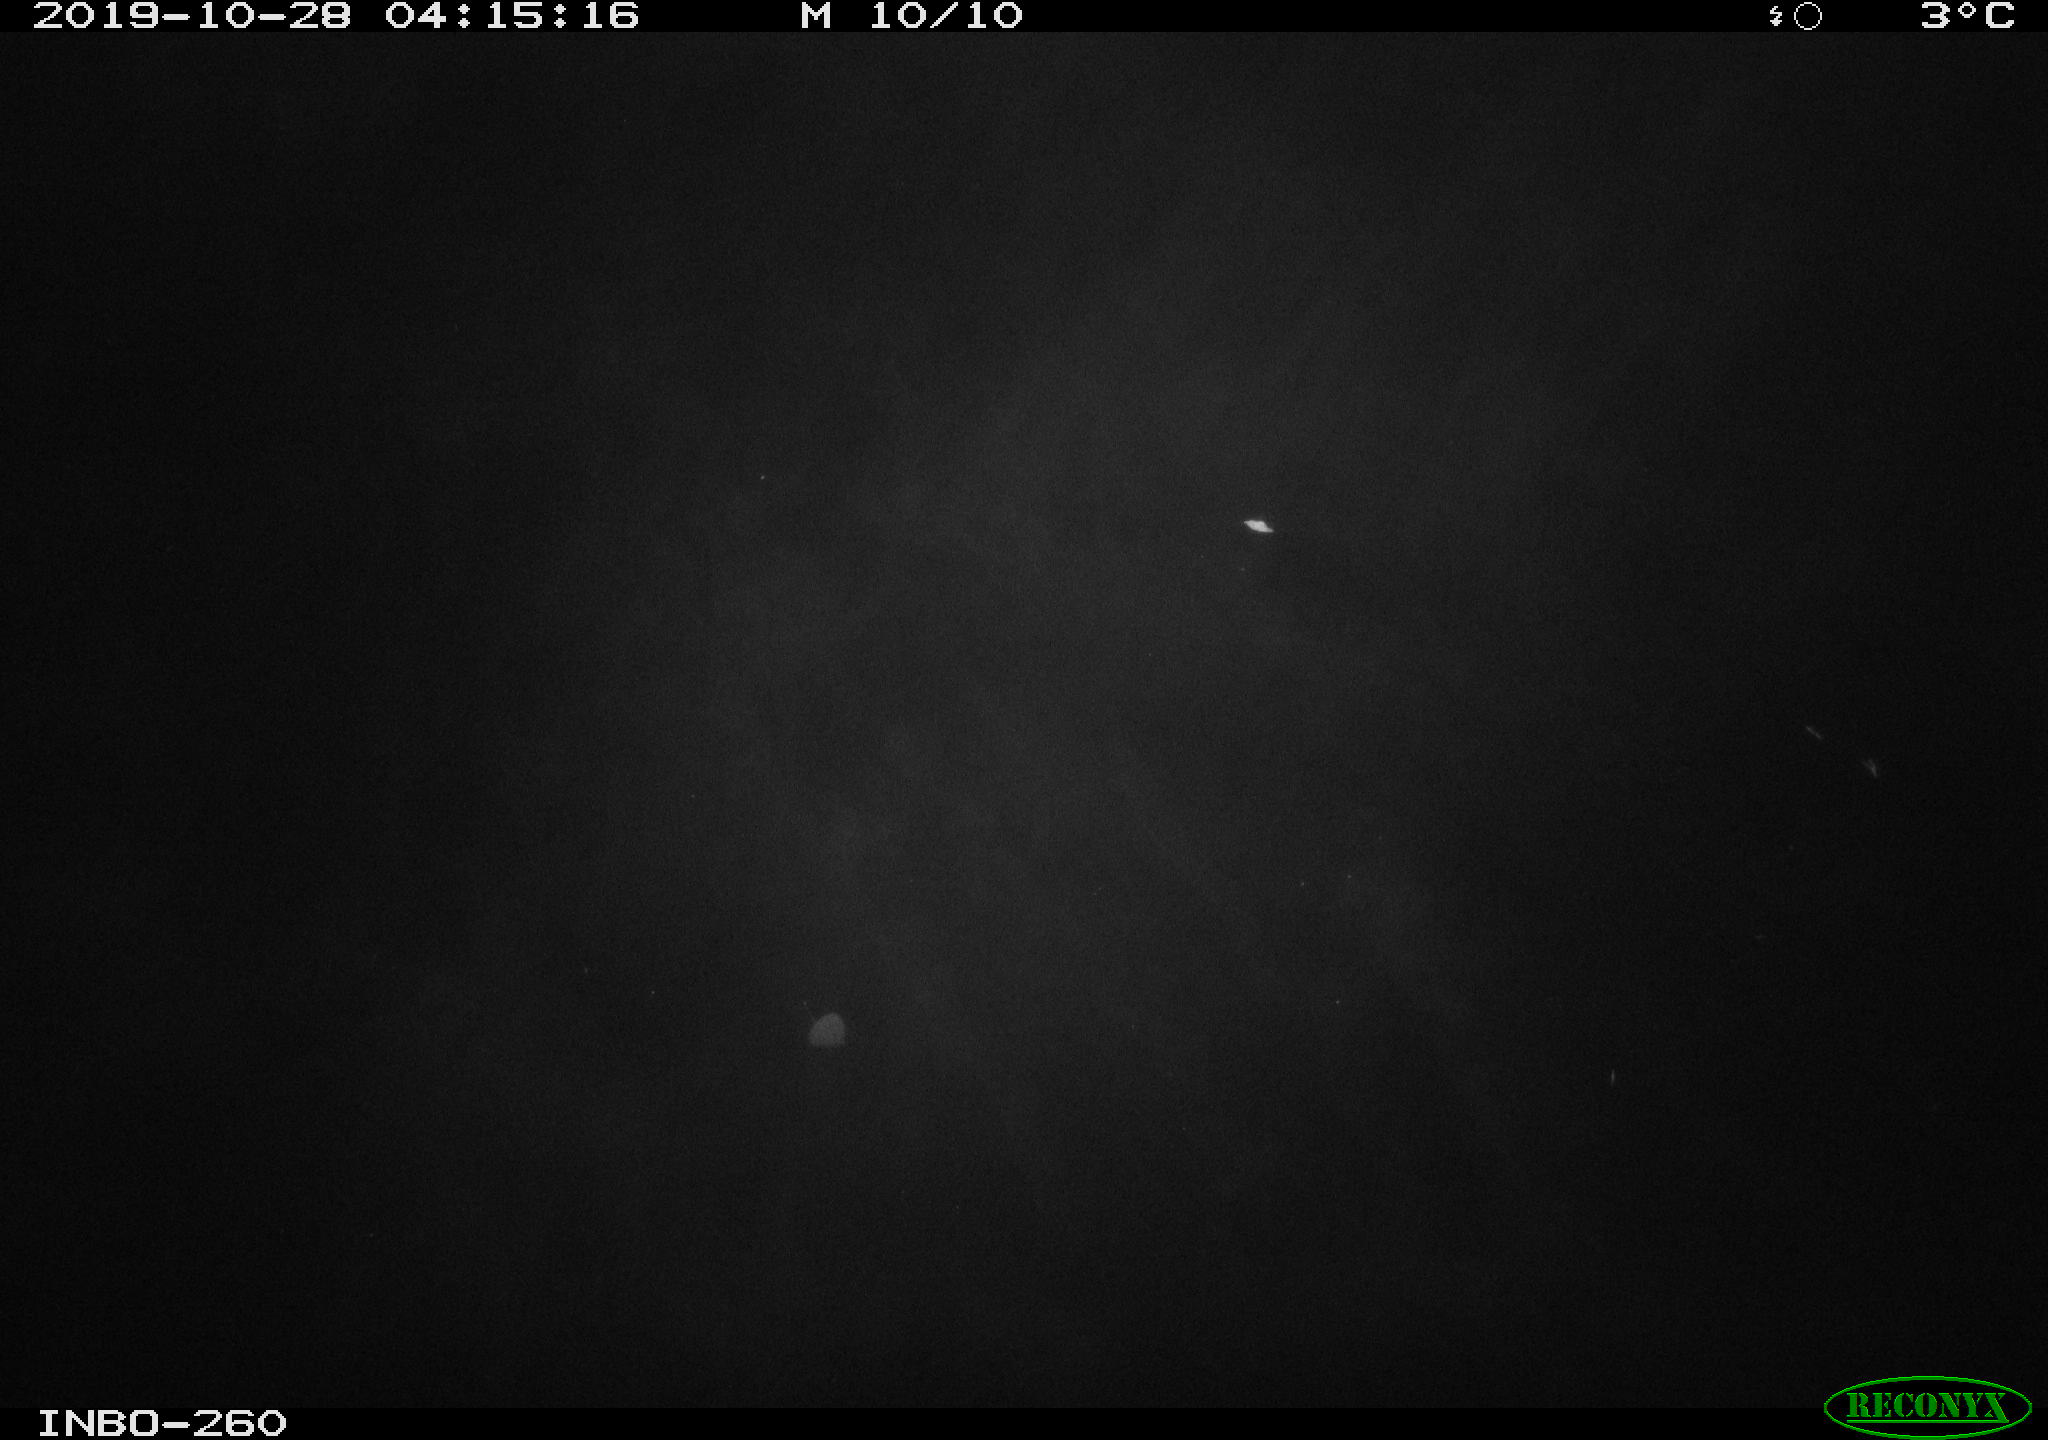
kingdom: Animalia
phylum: Chordata
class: Aves
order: Anseriformes
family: Anatidae
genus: Anas
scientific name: Anas platyrhynchos
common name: Mallard
